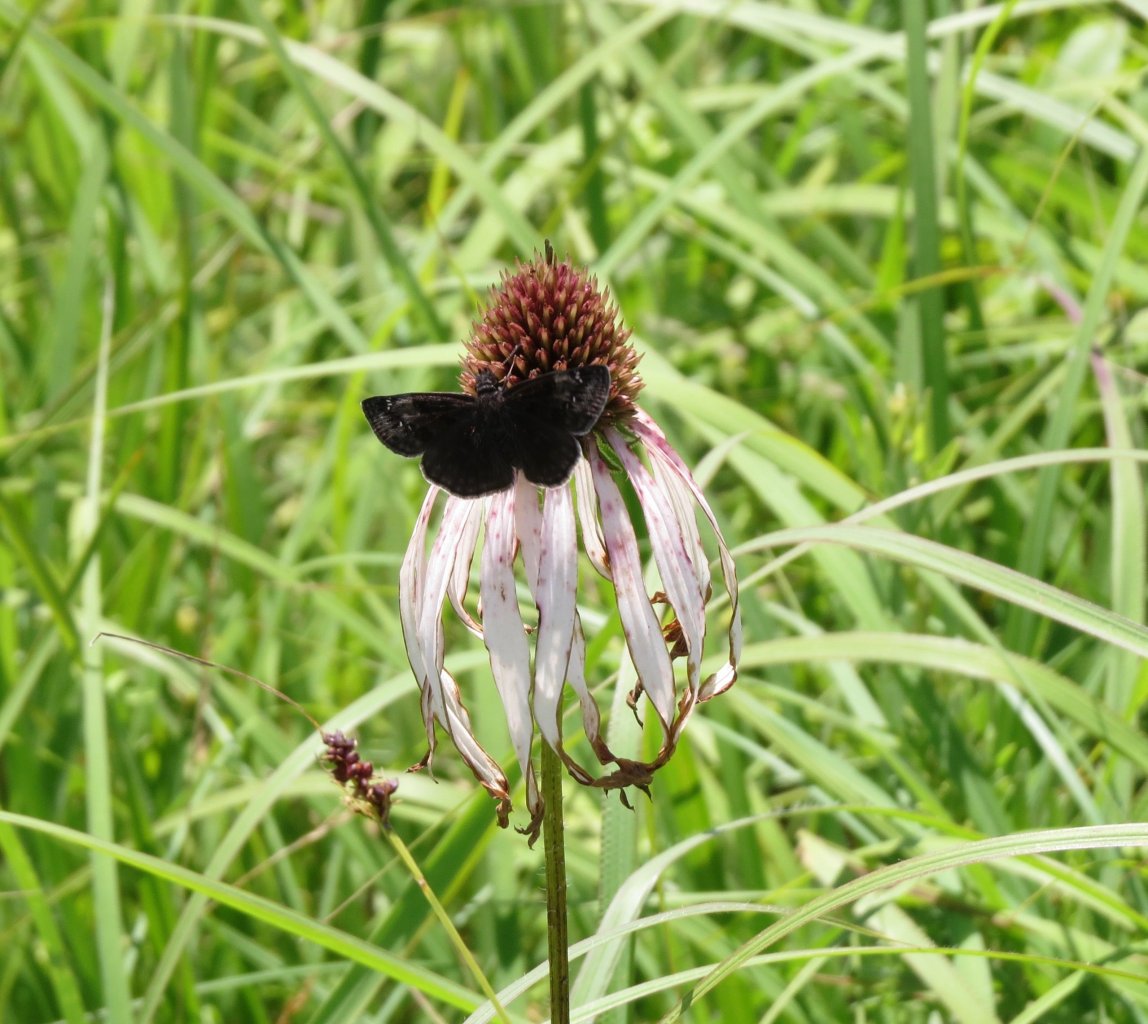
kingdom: Animalia
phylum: Arthropoda
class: Insecta
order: Lepidoptera
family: Hesperiidae
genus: Gesta
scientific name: Gesta
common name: Wild Indigo Duskywing
